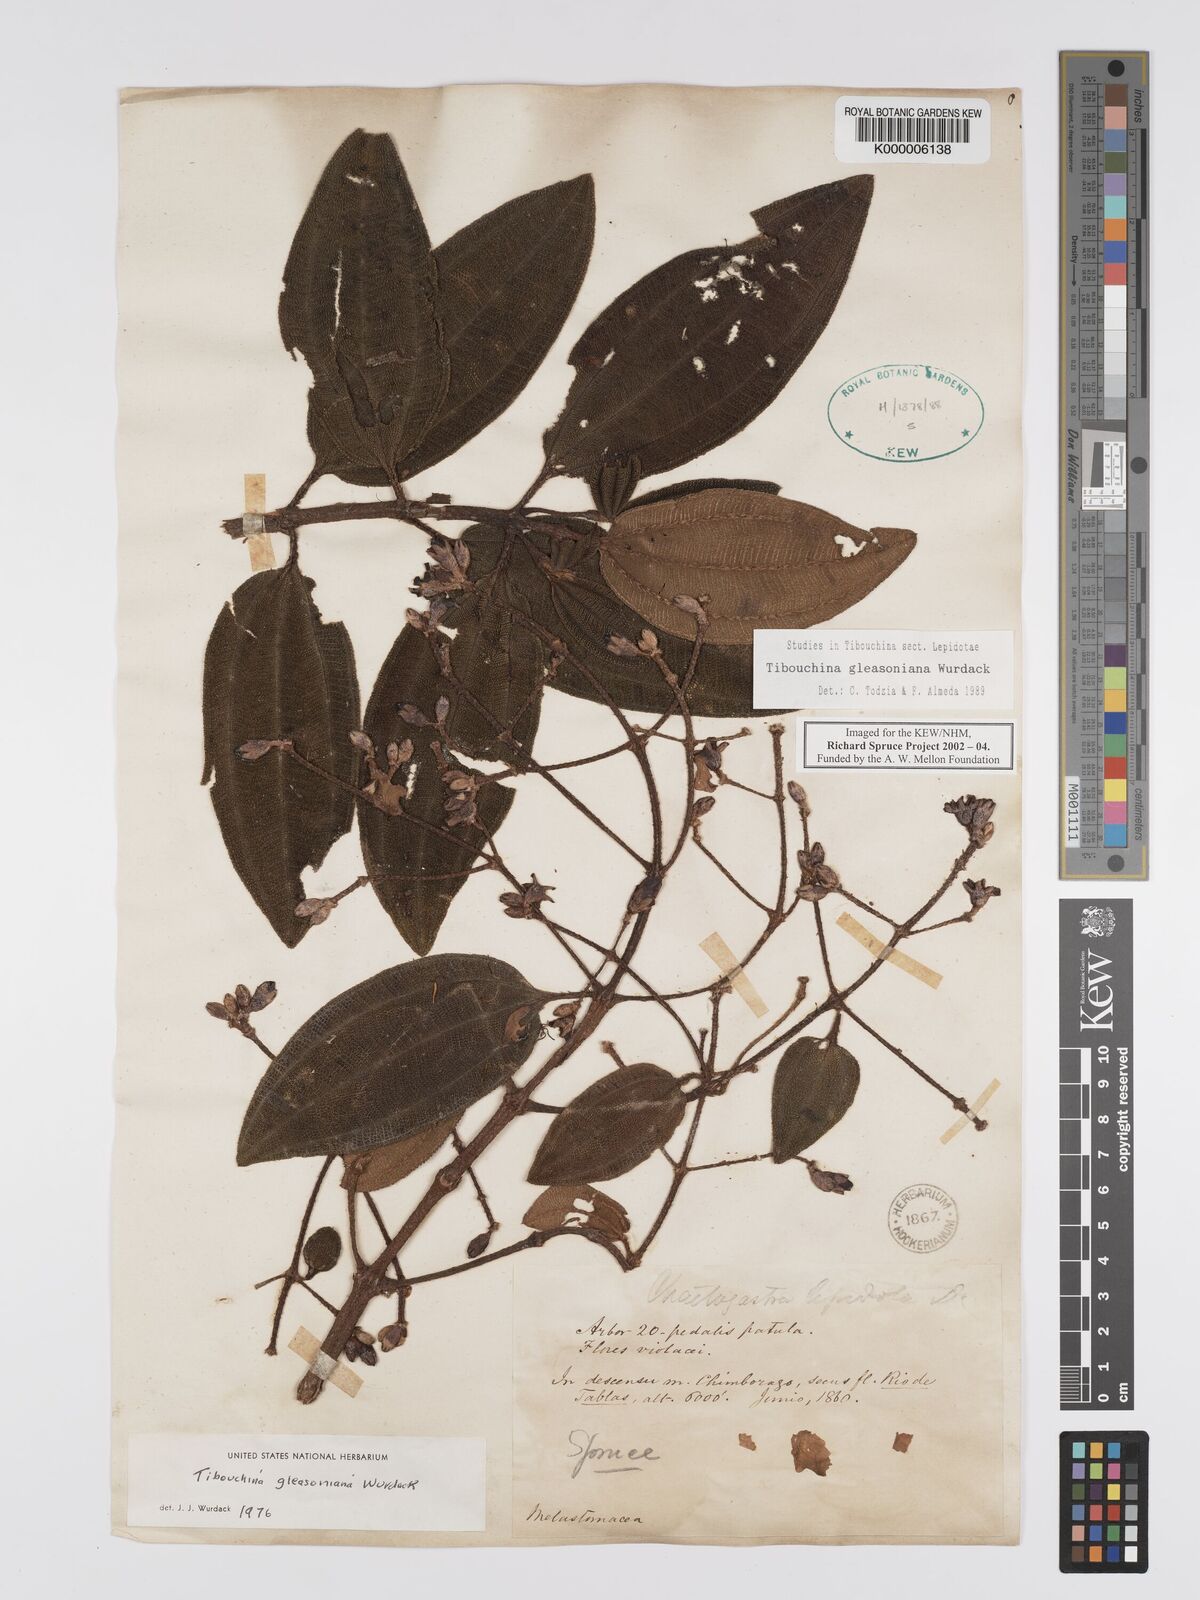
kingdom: Plantae
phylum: Tracheophyta
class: Magnoliopsida
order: Myrtales
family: Melastomataceae
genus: Andesanthus
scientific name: Andesanthus gleasonianus
